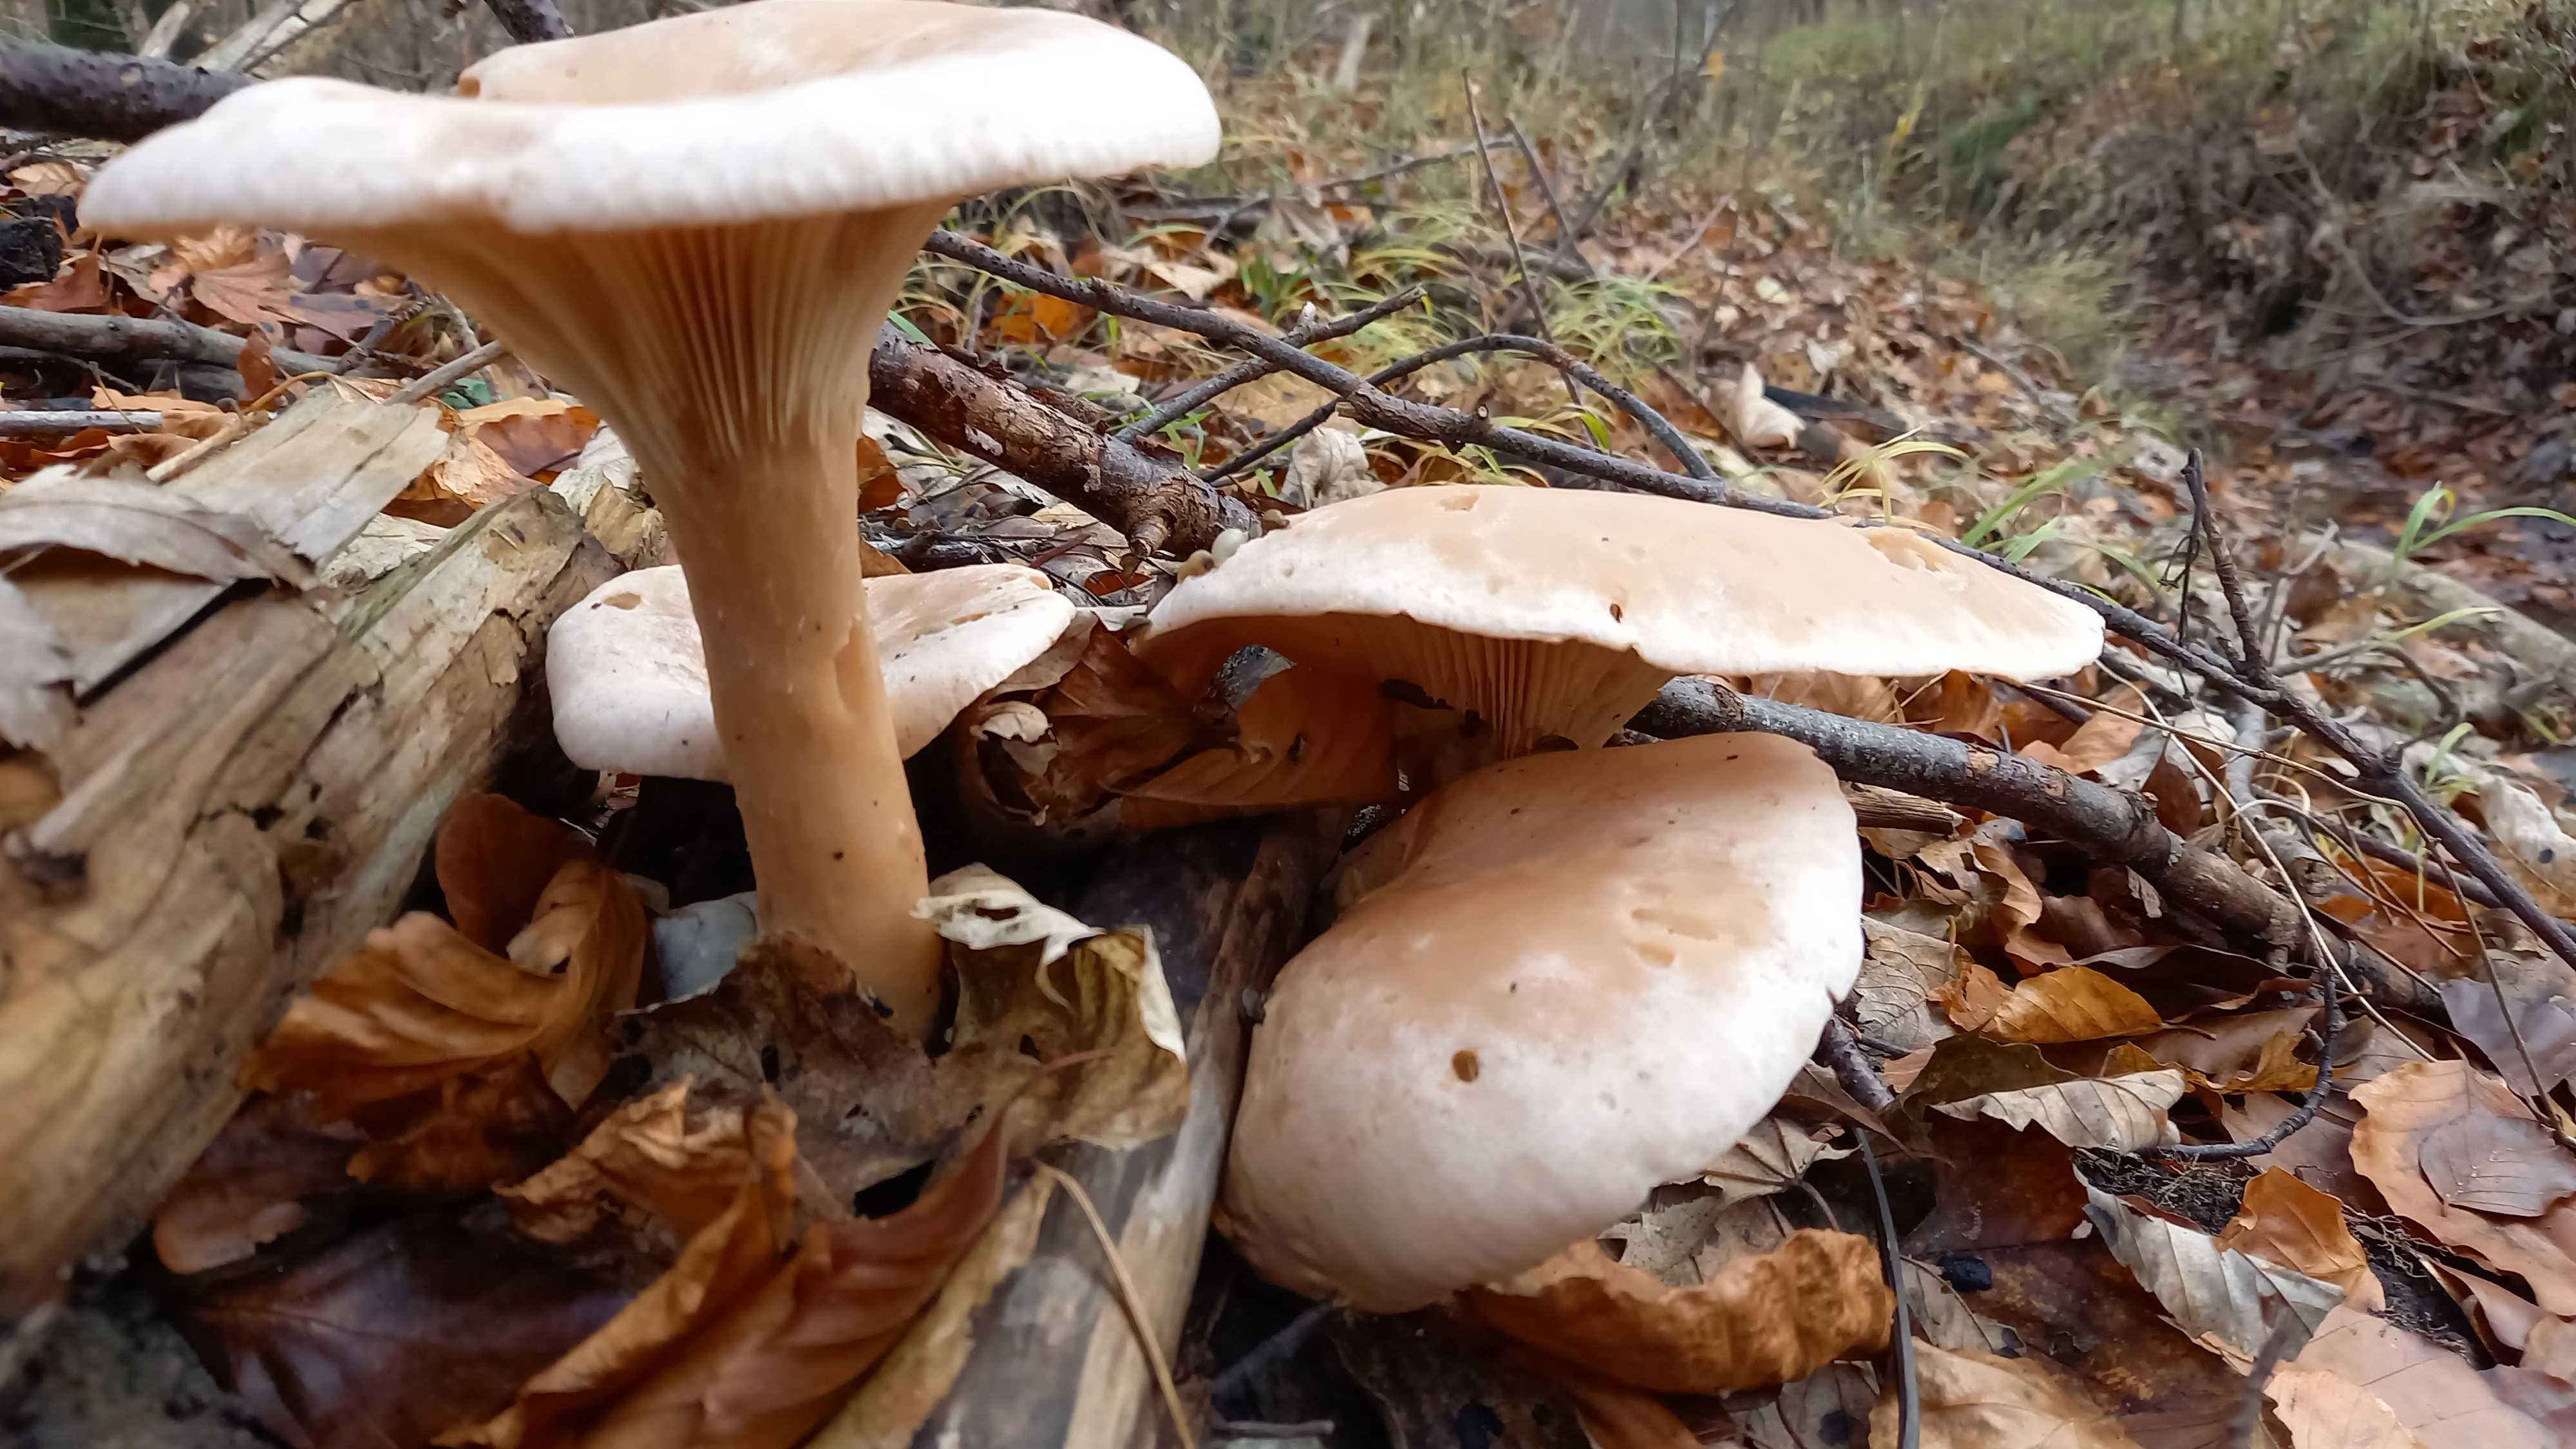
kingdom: Fungi
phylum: Basidiomycota
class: Agaricomycetes
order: Agaricales
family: Tricholomataceae
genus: Infundibulicybe
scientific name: Infundibulicybe geotropa
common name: stor tragthat
